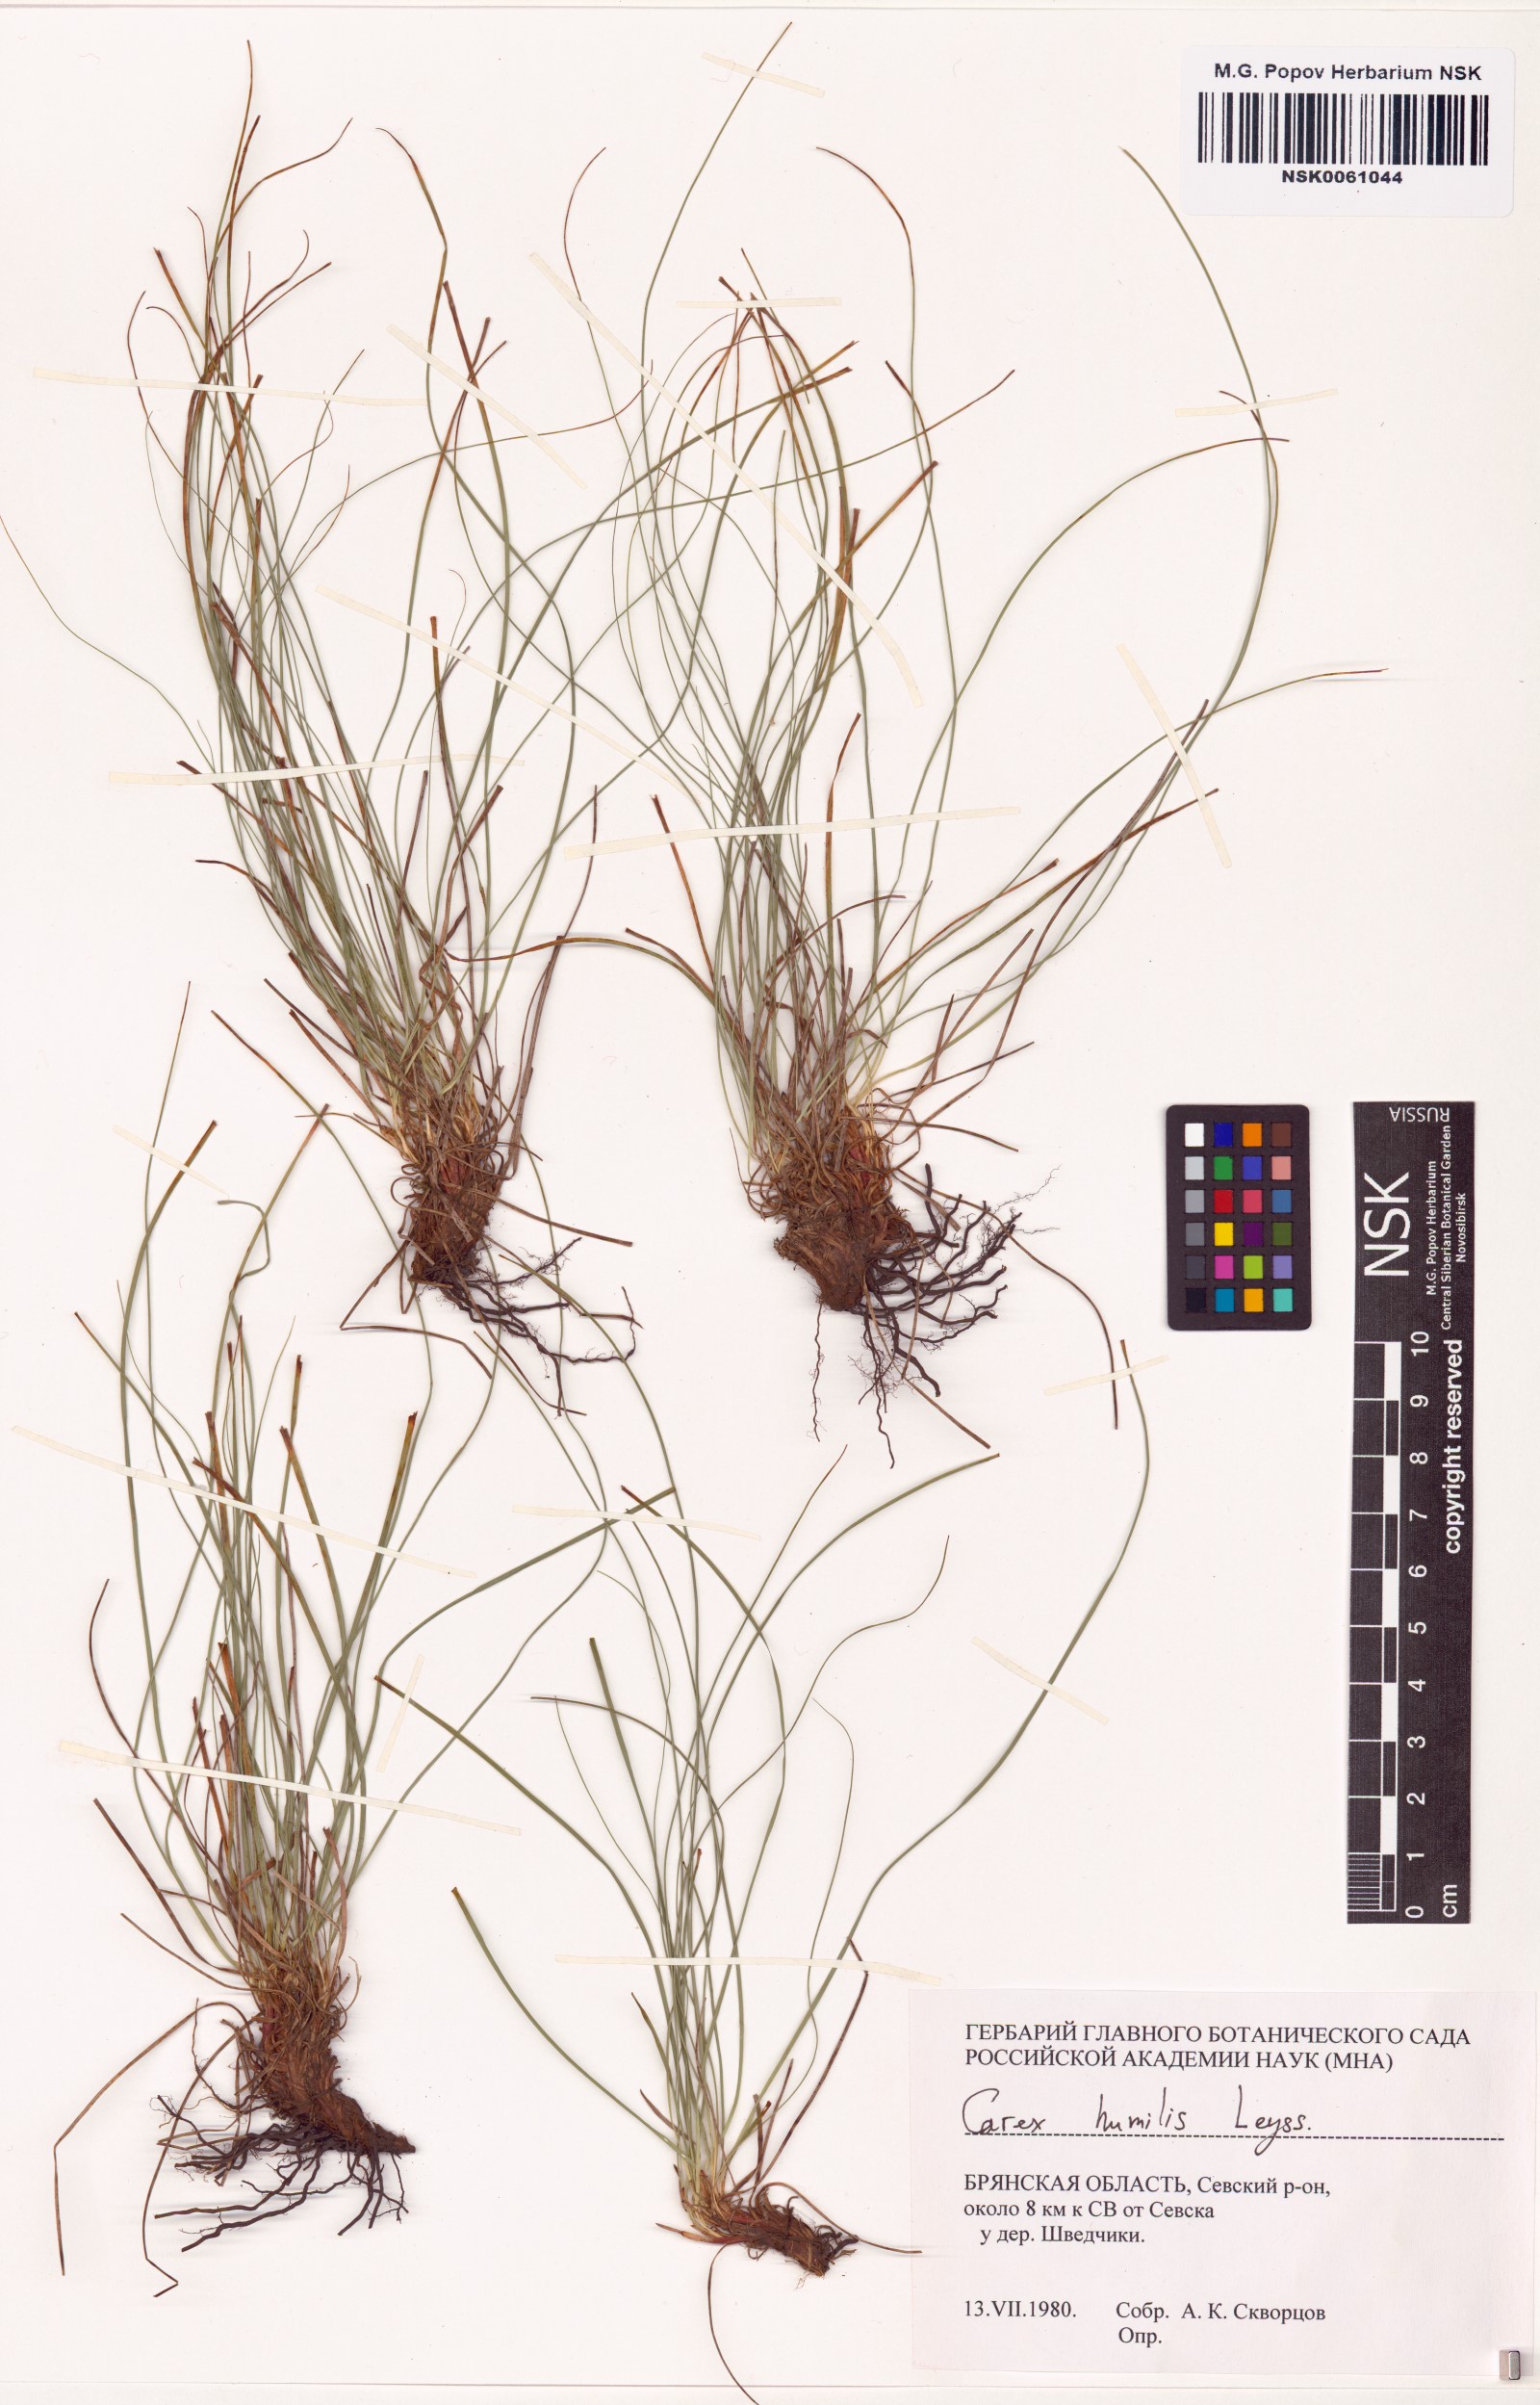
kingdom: Plantae
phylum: Tracheophyta
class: Liliopsida
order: Poales
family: Cyperaceae
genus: Carex
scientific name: Carex humilis
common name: Dwarf sedge
